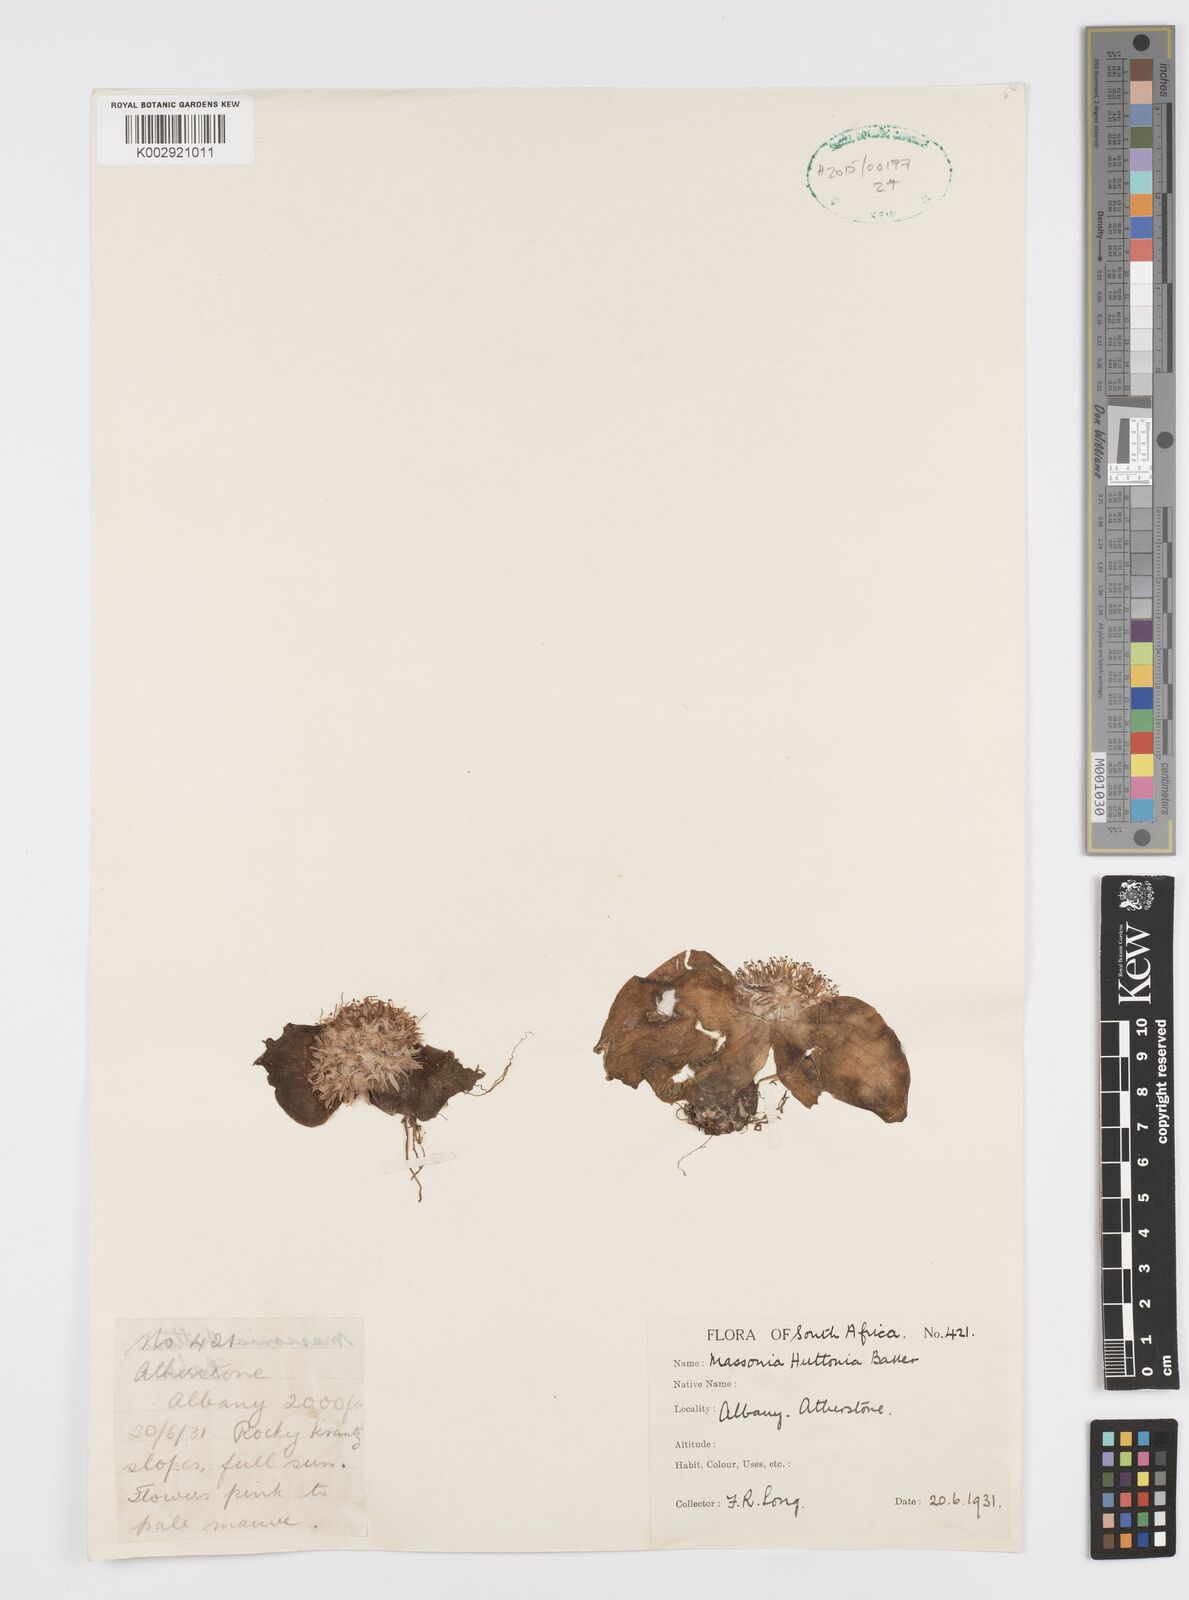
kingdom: Plantae
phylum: Tracheophyta
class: Liliopsida
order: Asparagales
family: Asparagaceae
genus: Massonia
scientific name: Massonia
